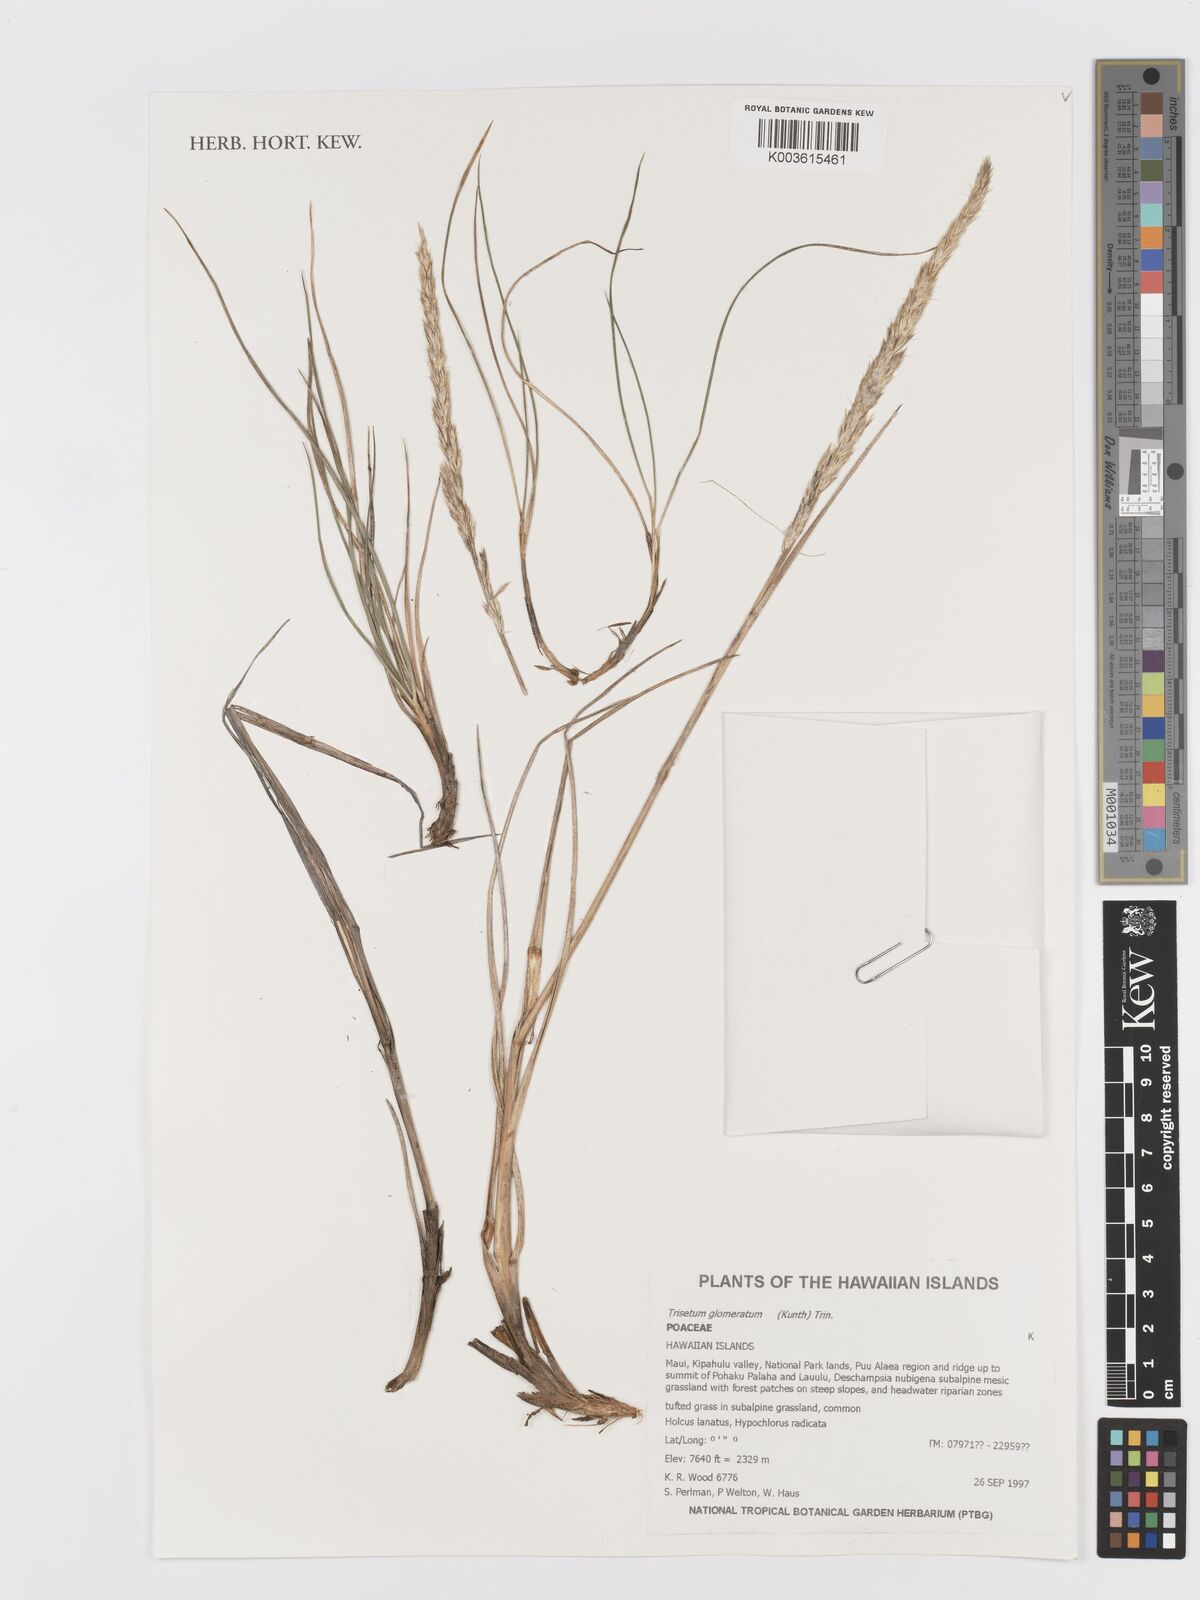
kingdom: Plantae
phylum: Tracheophyta
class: Liliopsida
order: Poales
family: Poaceae
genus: Trisetum
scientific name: Trisetum glomeratum
